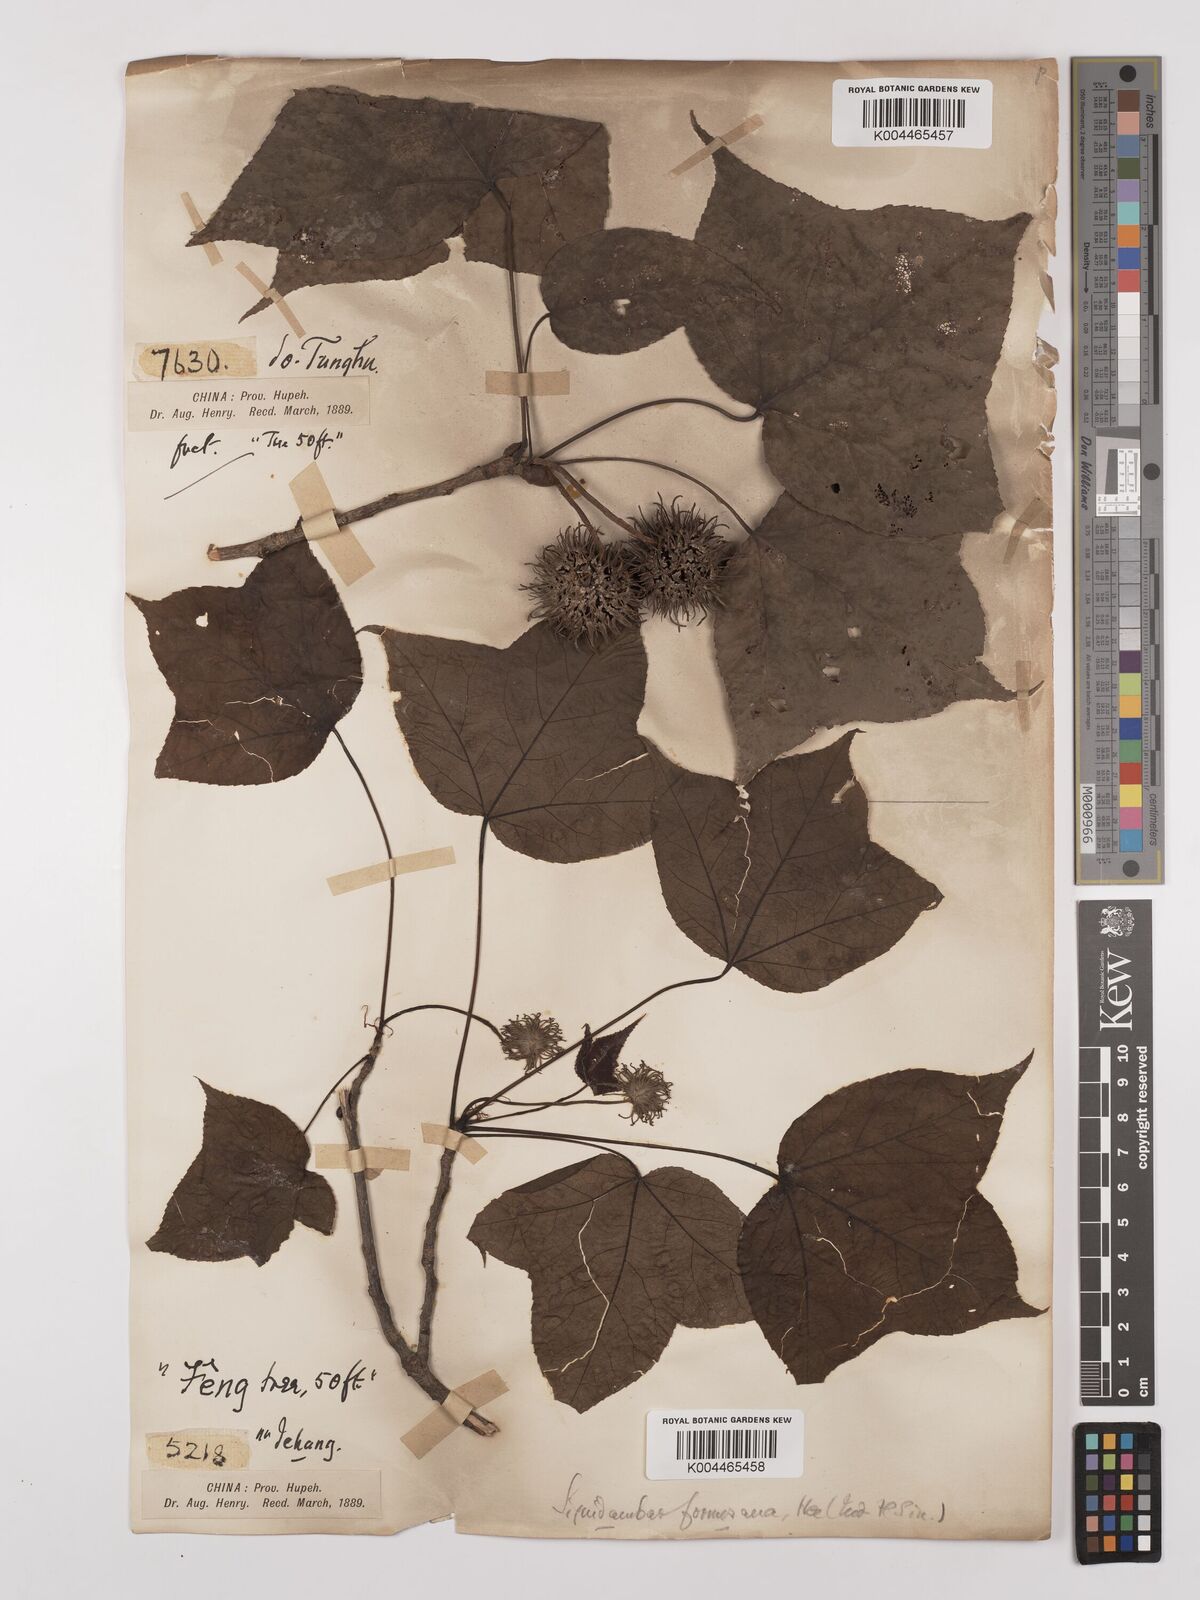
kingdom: Plantae
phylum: Tracheophyta
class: Magnoliopsida
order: Saxifragales
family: Altingiaceae
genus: Liquidambar
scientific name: Liquidambar formosana
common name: Chinese sweet gum
